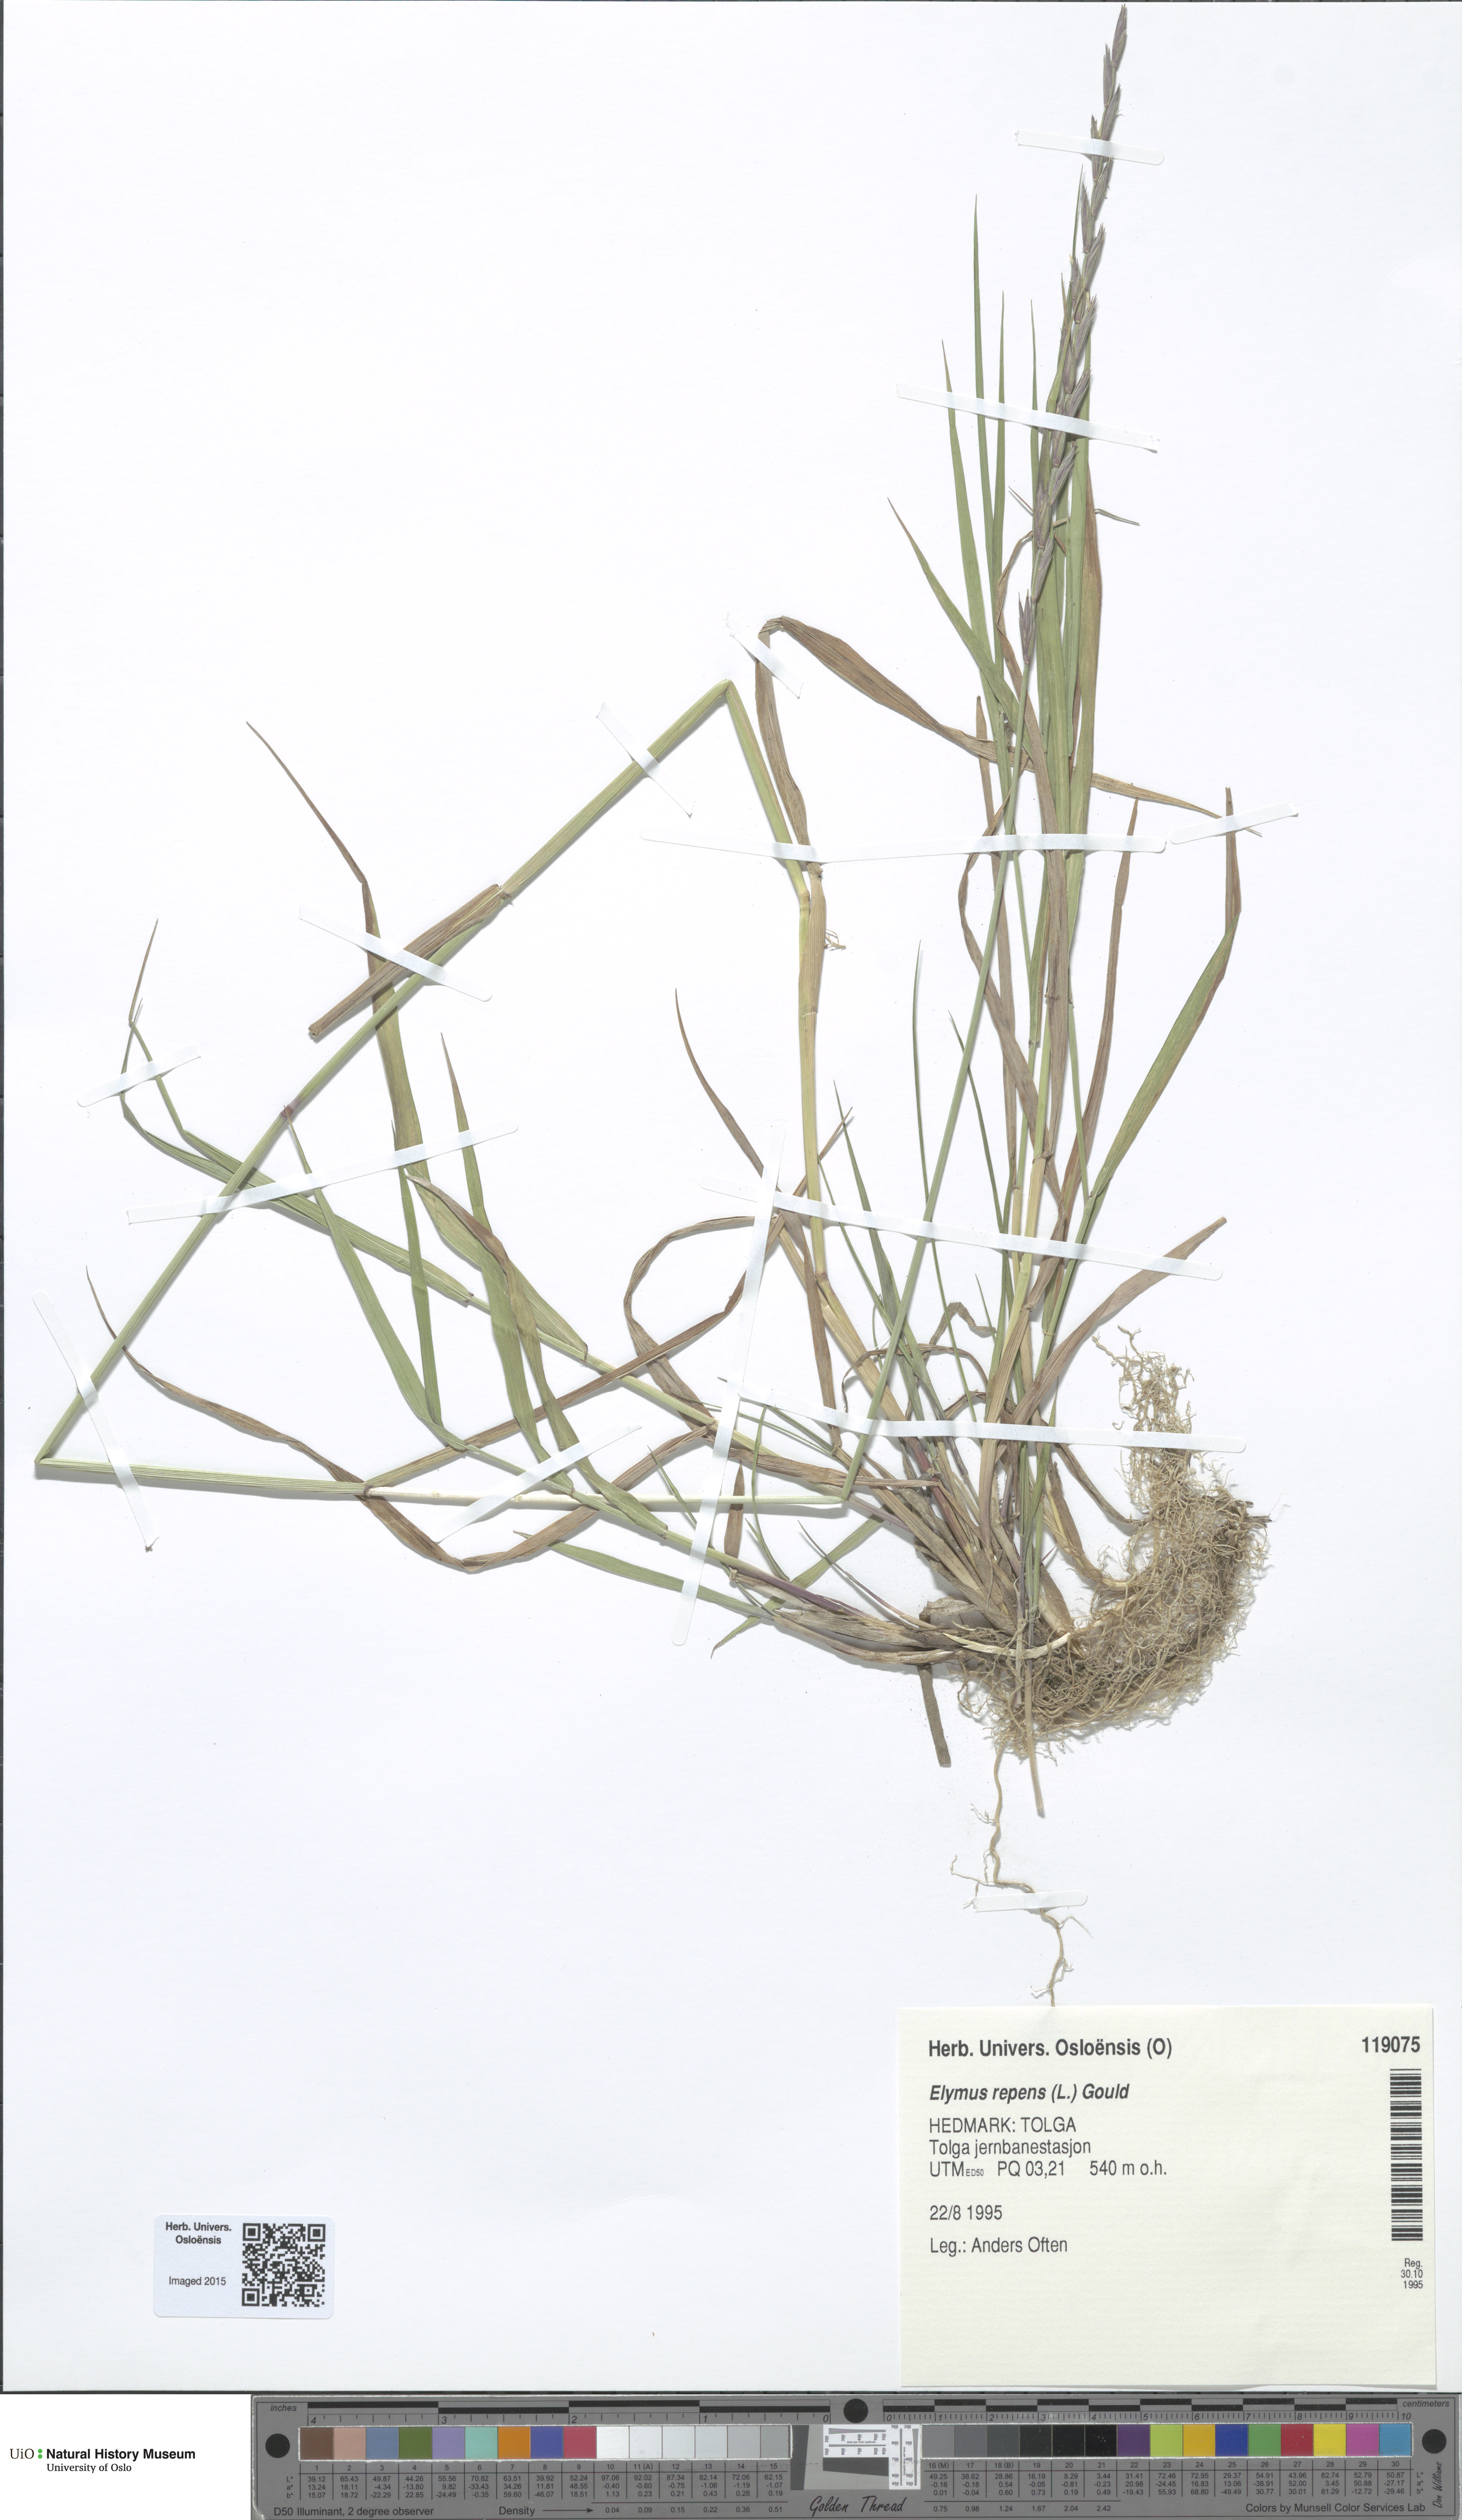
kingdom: Plantae
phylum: Tracheophyta
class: Liliopsida
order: Poales
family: Poaceae
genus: Elymus
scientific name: Elymus repens
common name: Quackgrass
